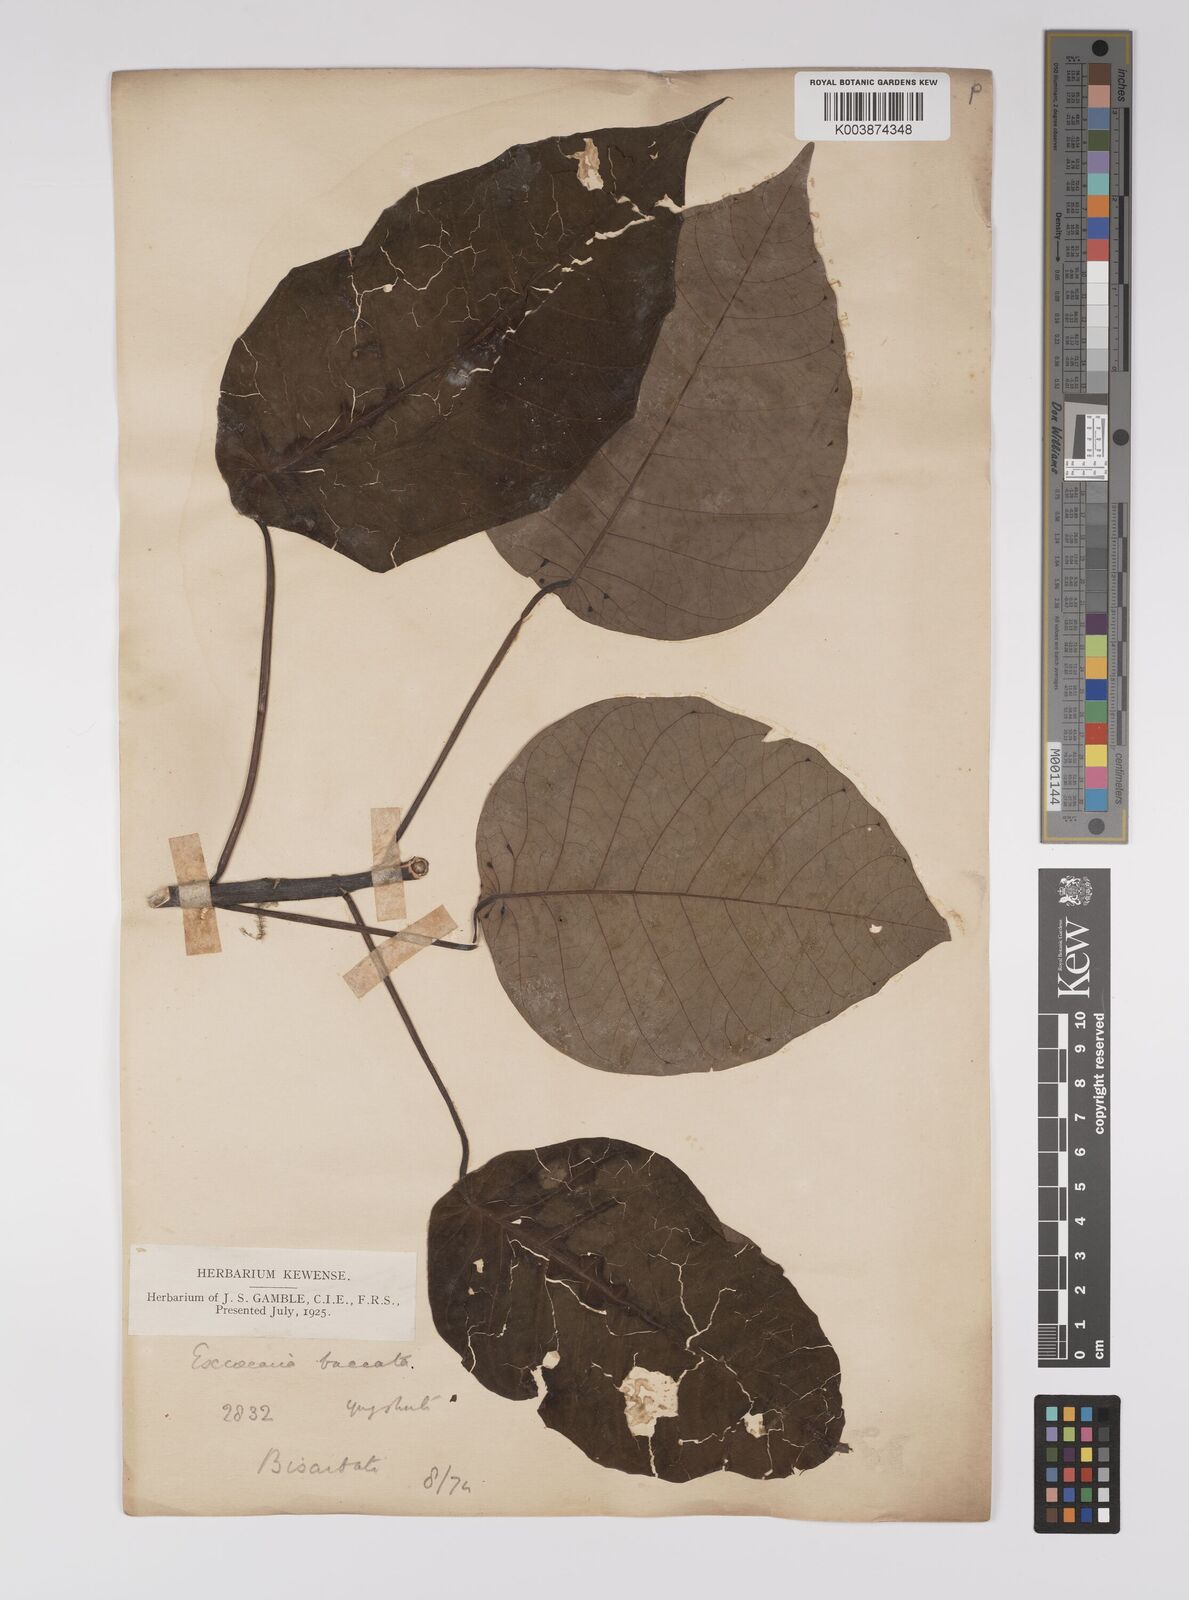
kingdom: Plantae
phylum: Tracheophyta
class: Magnoliopsida
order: Malpighiales
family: Euphorbiaceae
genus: Balakata
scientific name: Balakata baccata
